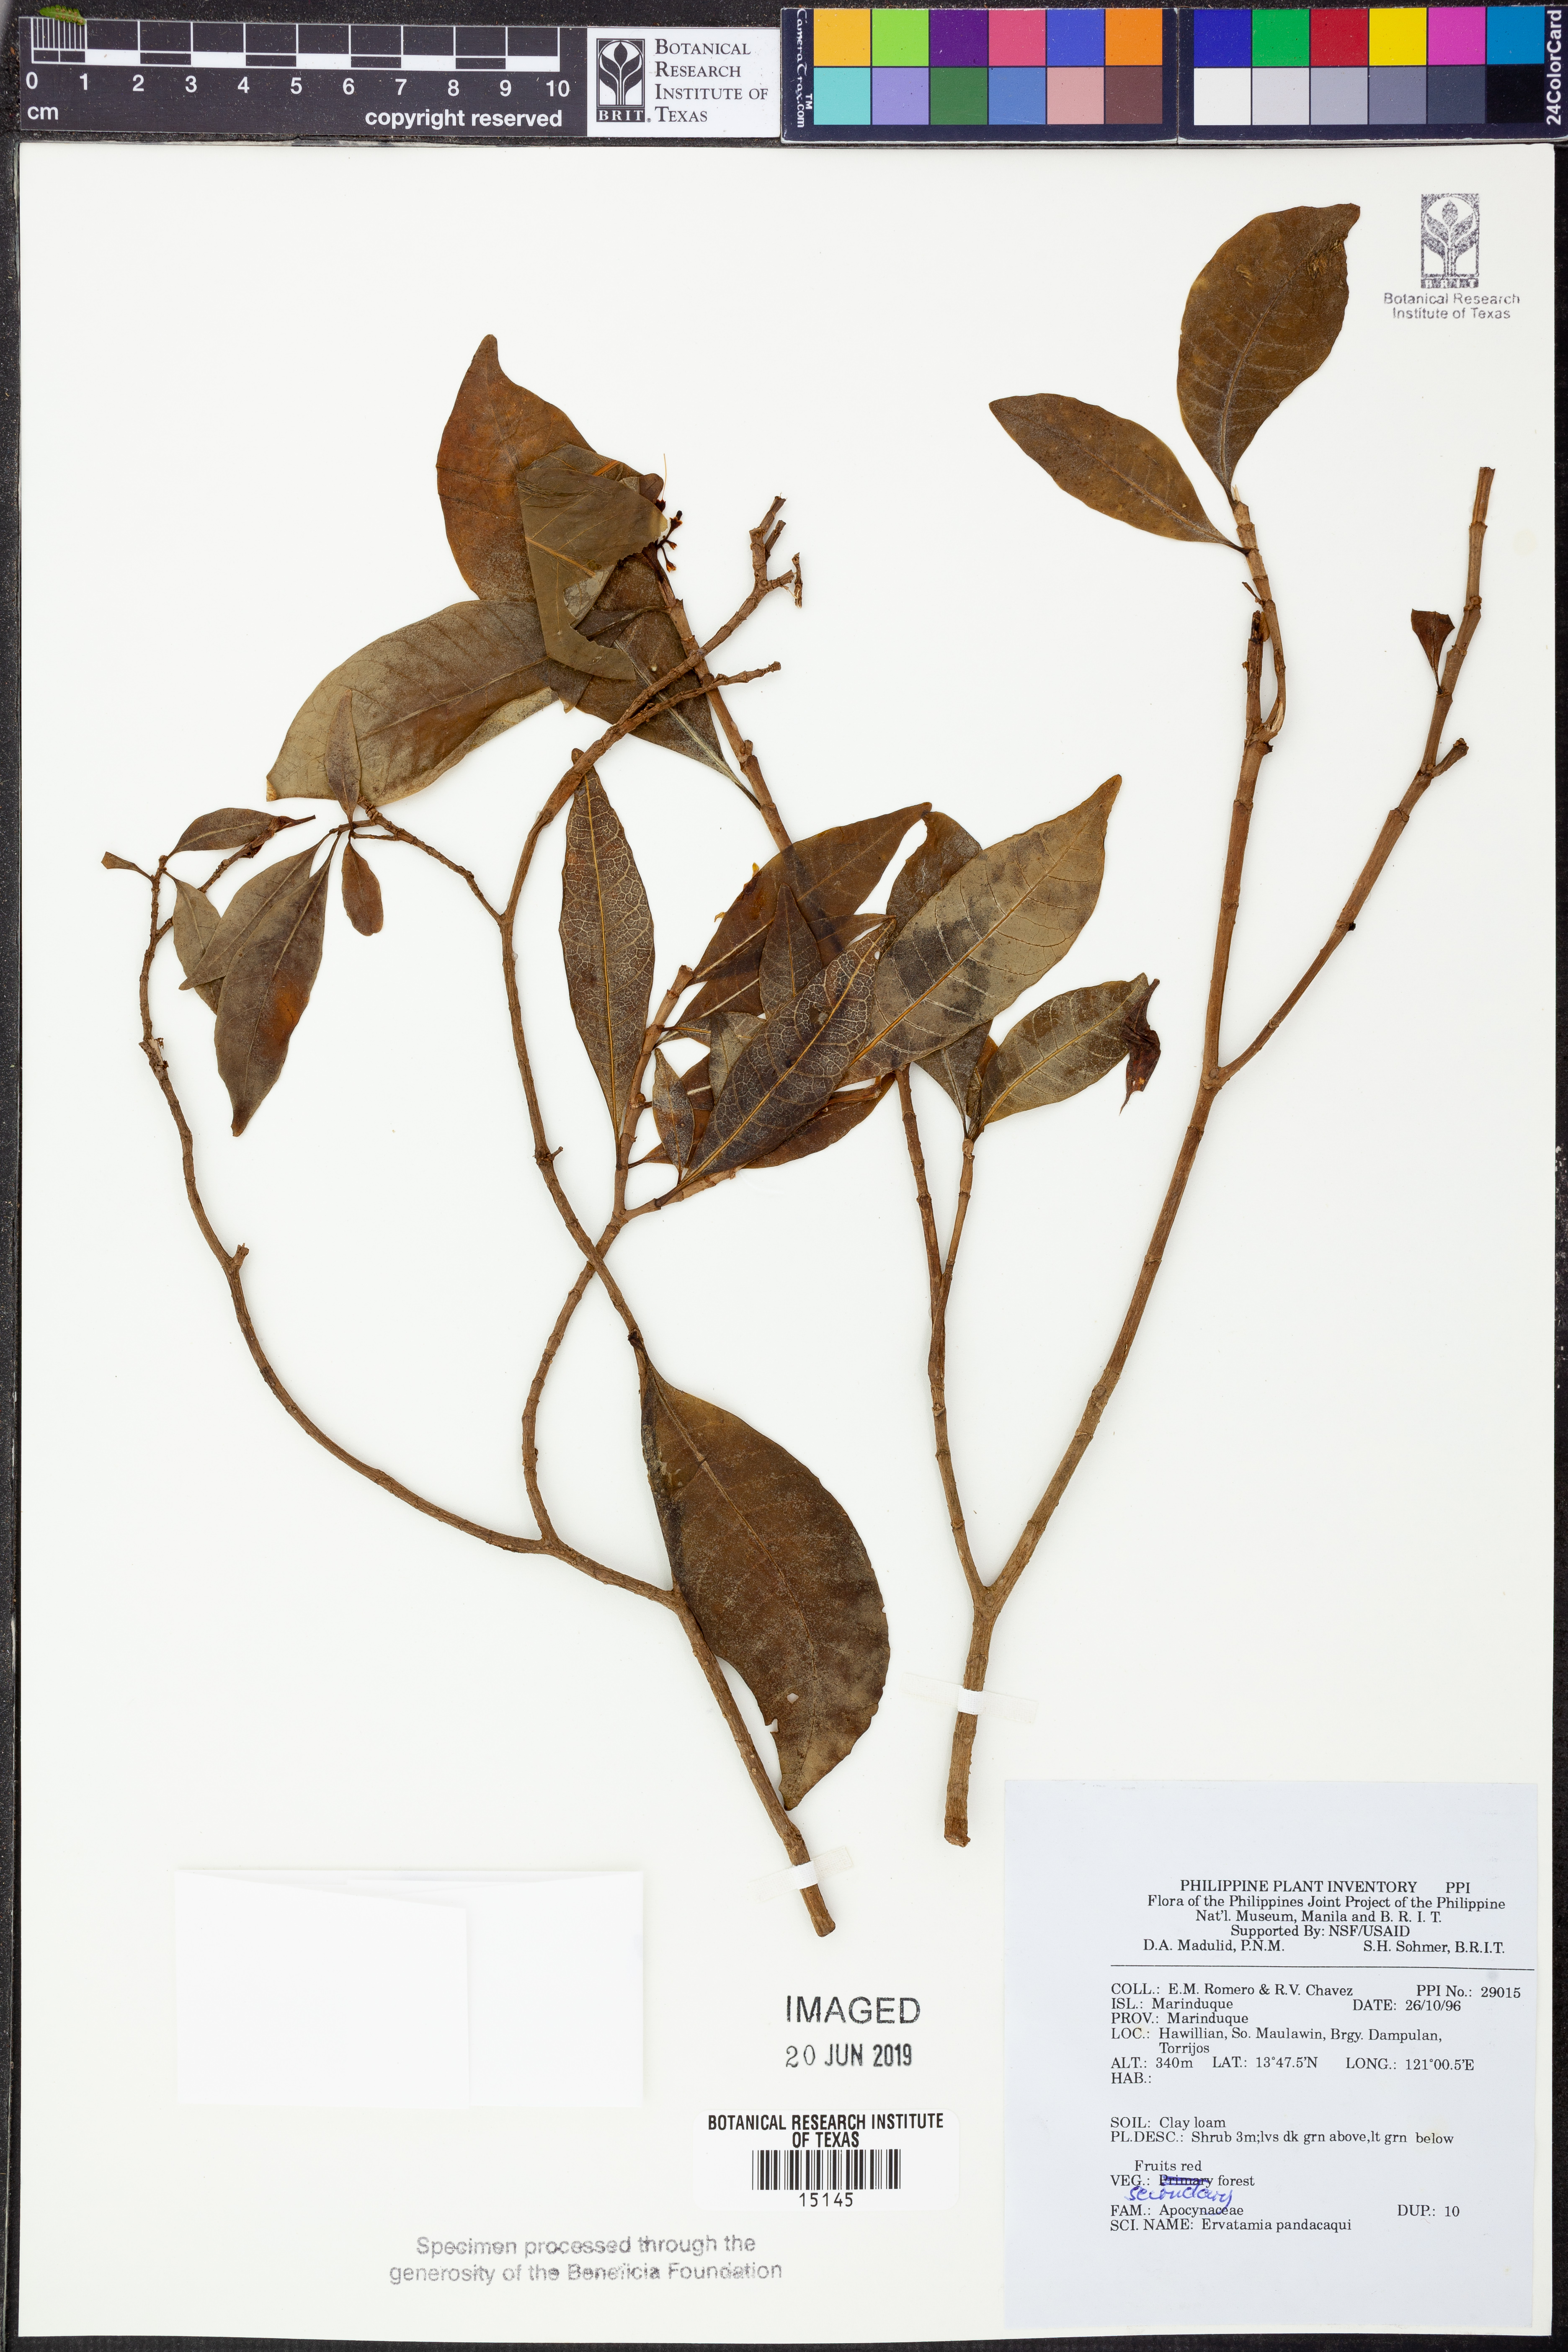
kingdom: Plantae
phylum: Tracheophyta
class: Magnoliopsida
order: Gentianales
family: Apocynaceae
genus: Tabernaemontana
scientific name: Tabernaemontana pandacaqui
